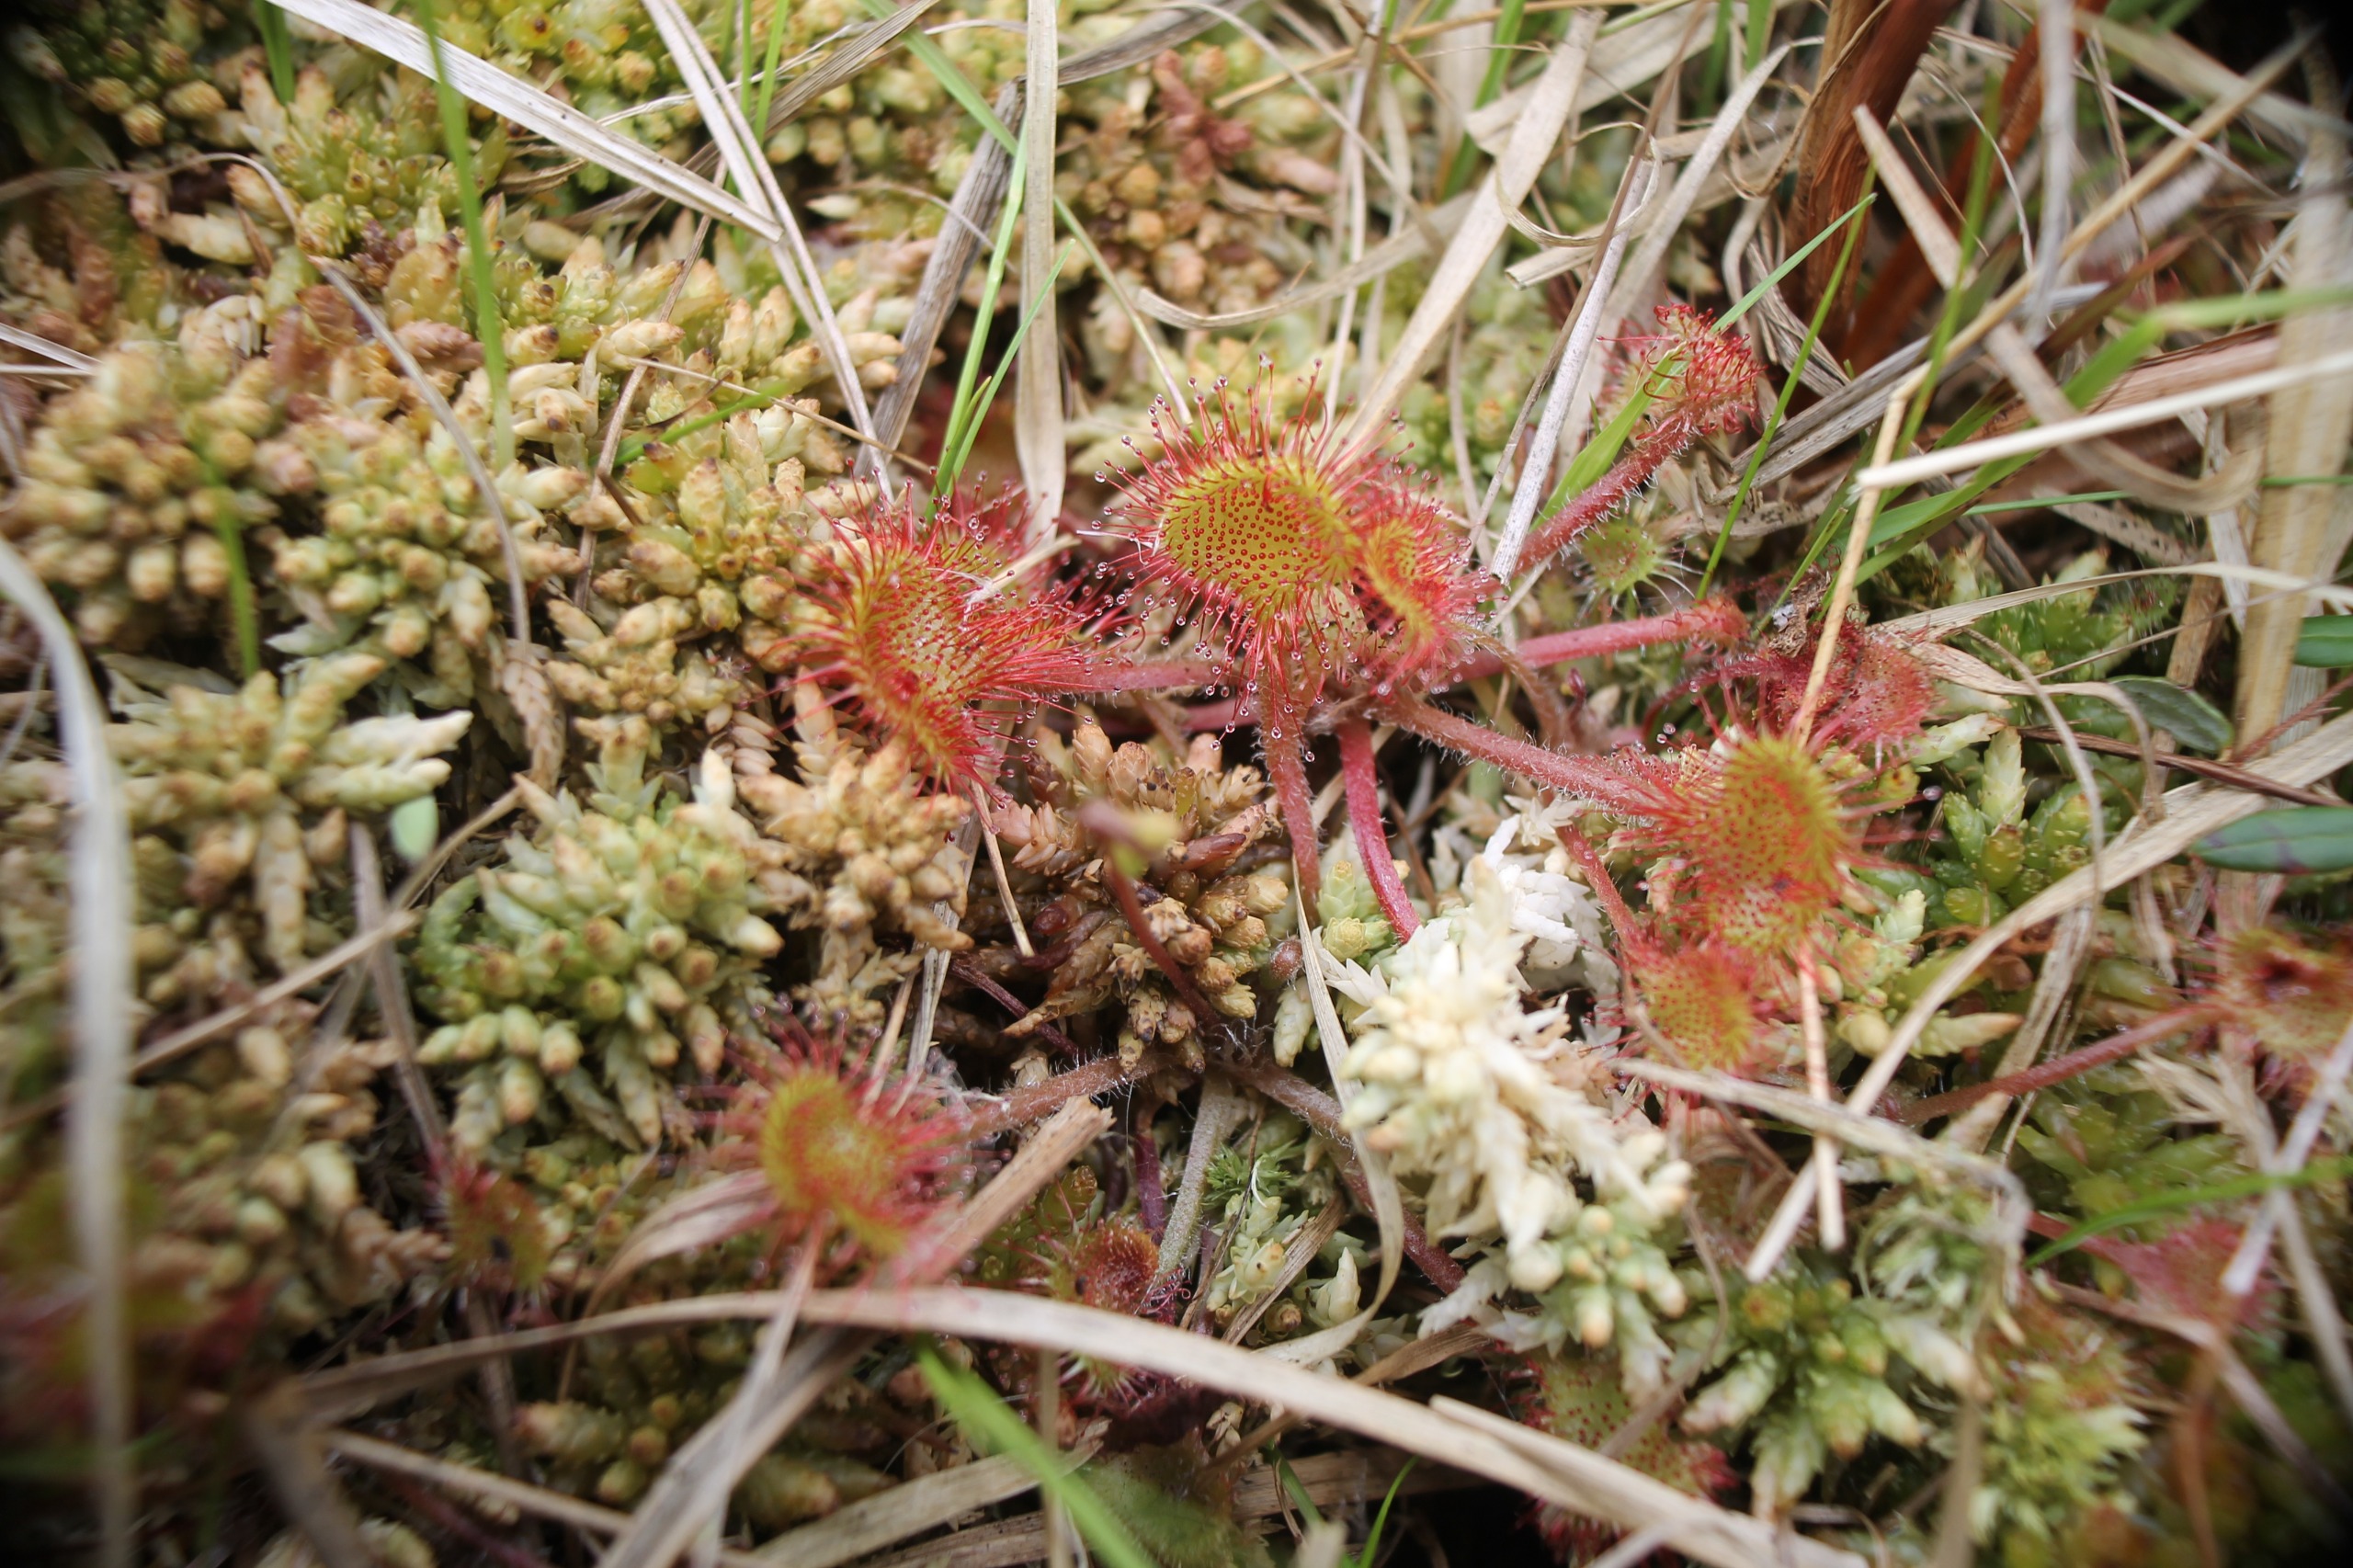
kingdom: Plantae
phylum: Tracheophyta
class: Magnoliopsida
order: Caryophyllales
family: Droseraceae
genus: Drosera
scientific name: Drosera rotundifolia
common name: Rundbladet soldug
